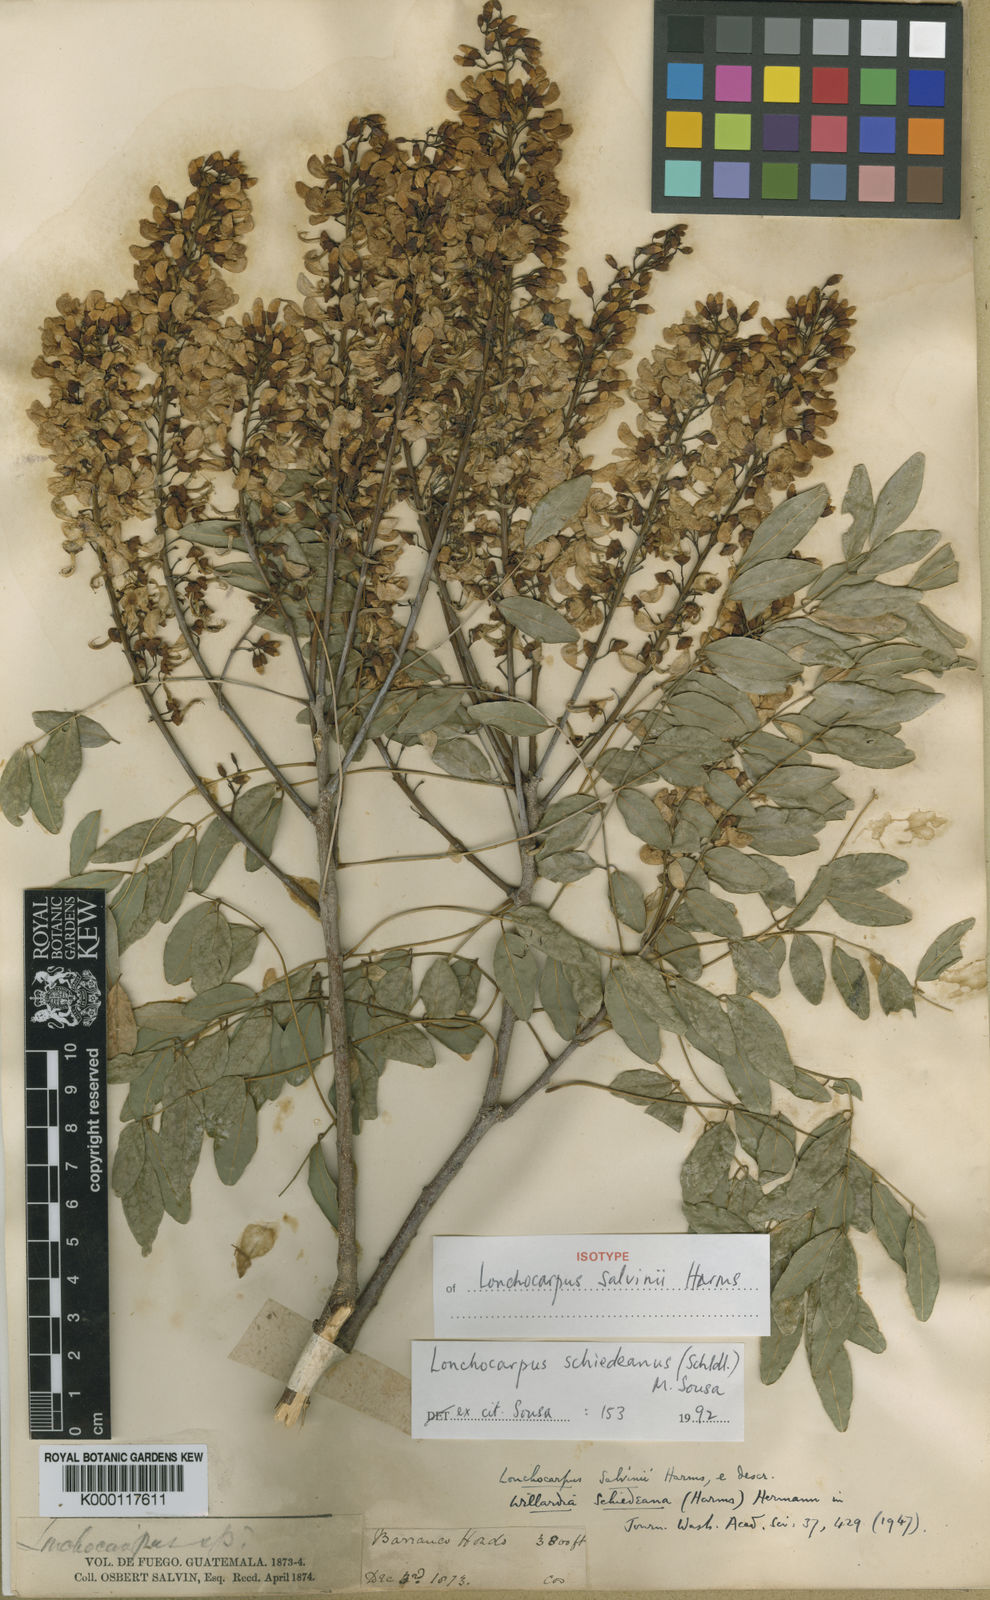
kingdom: Plantae
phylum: Tracheophyta
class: Magnoliopsida
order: Fabales
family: Fabaceae
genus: Lonchocarpus
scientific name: Lonchocarpus schiedeanus
